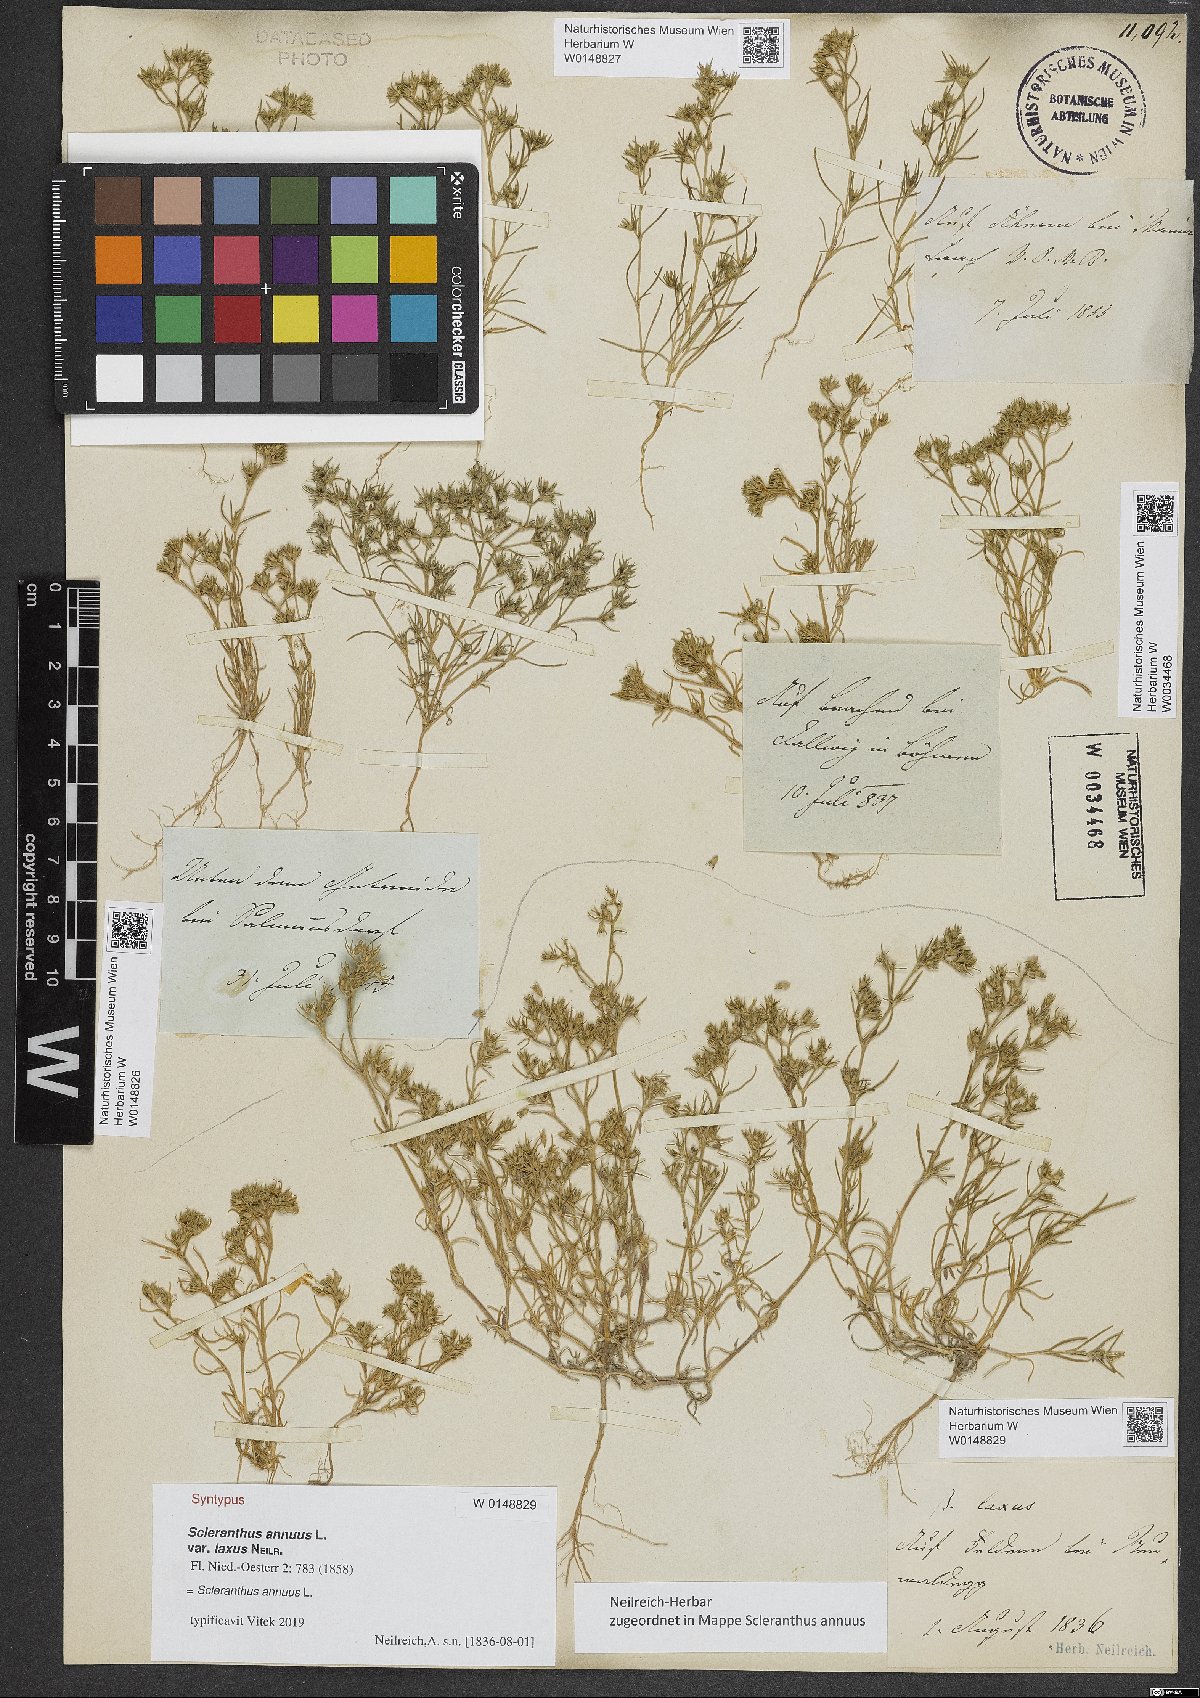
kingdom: Plantae
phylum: Tracheophyta
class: Magnoliopsida
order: Caryophyllales
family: Caryophyllaceae
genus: Scleranthus
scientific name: Scleranthus annuus
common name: Annual knawel
